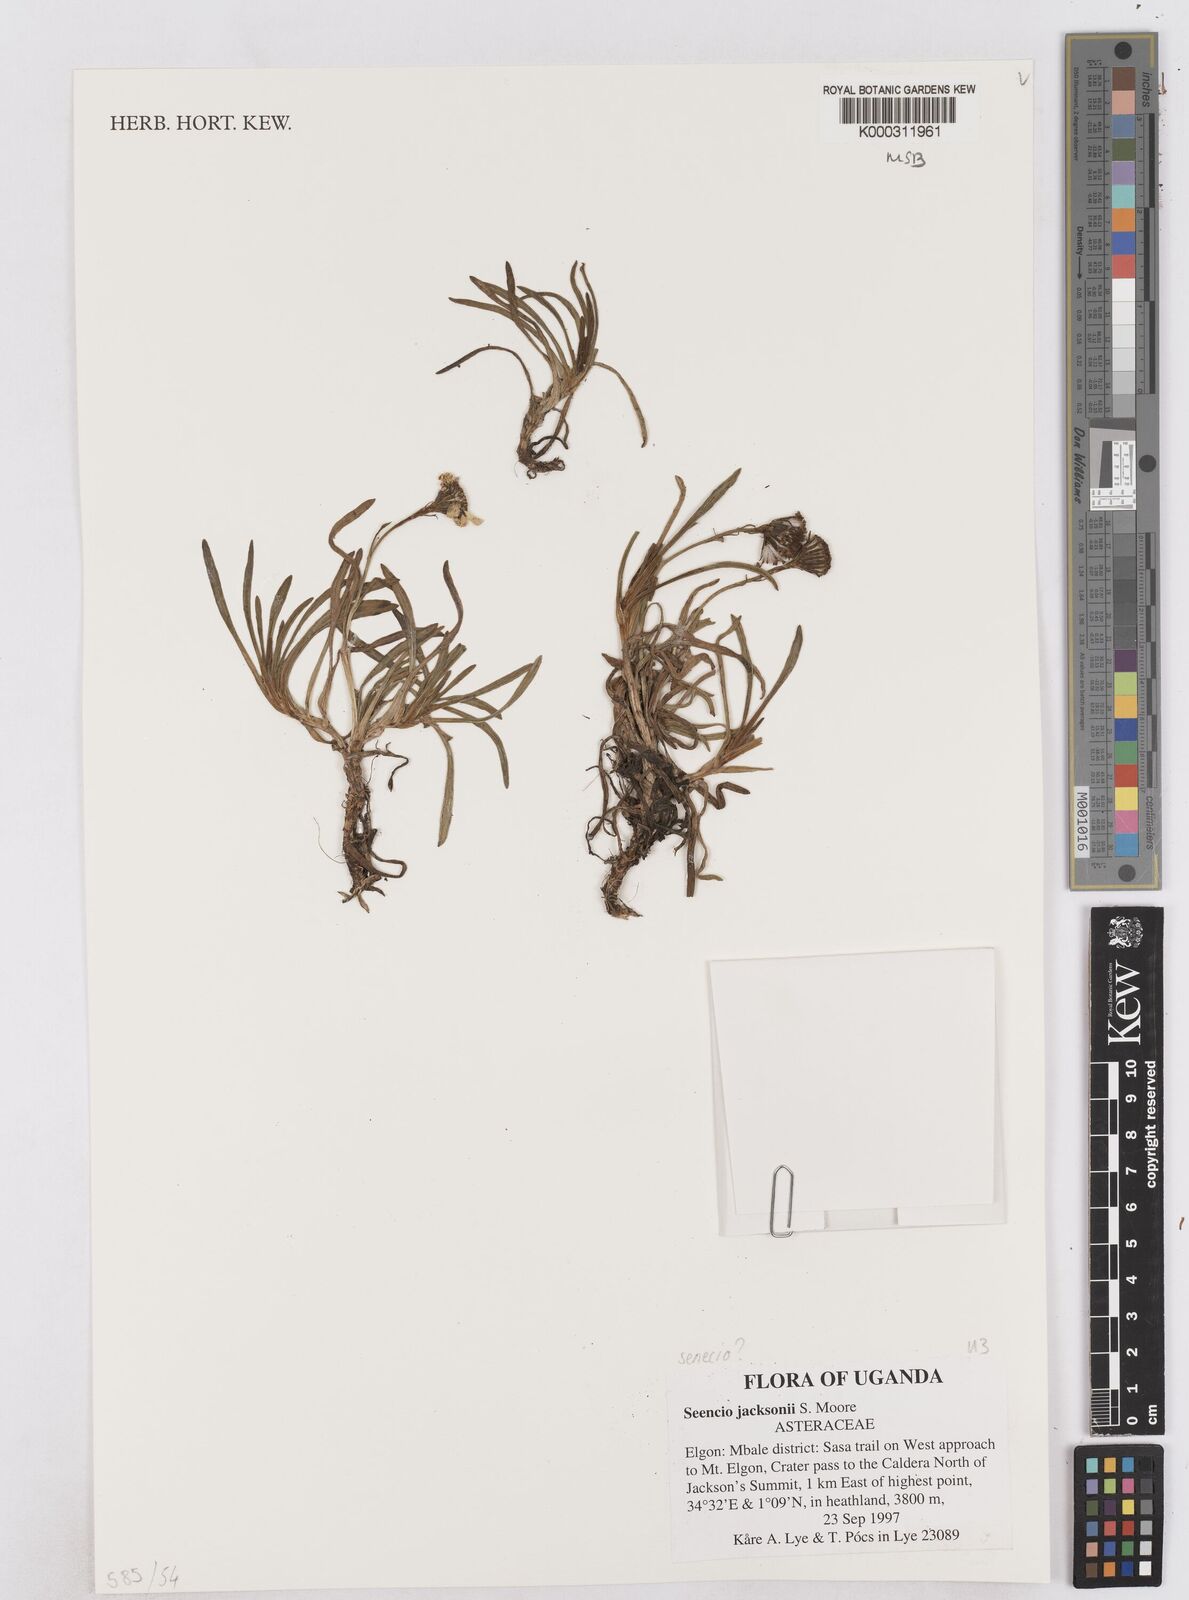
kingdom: Plantae
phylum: Tracheophyta
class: Magnoliopsida
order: Asterales
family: Asteraceae
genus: Senecio
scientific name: Senecio jacksonii
